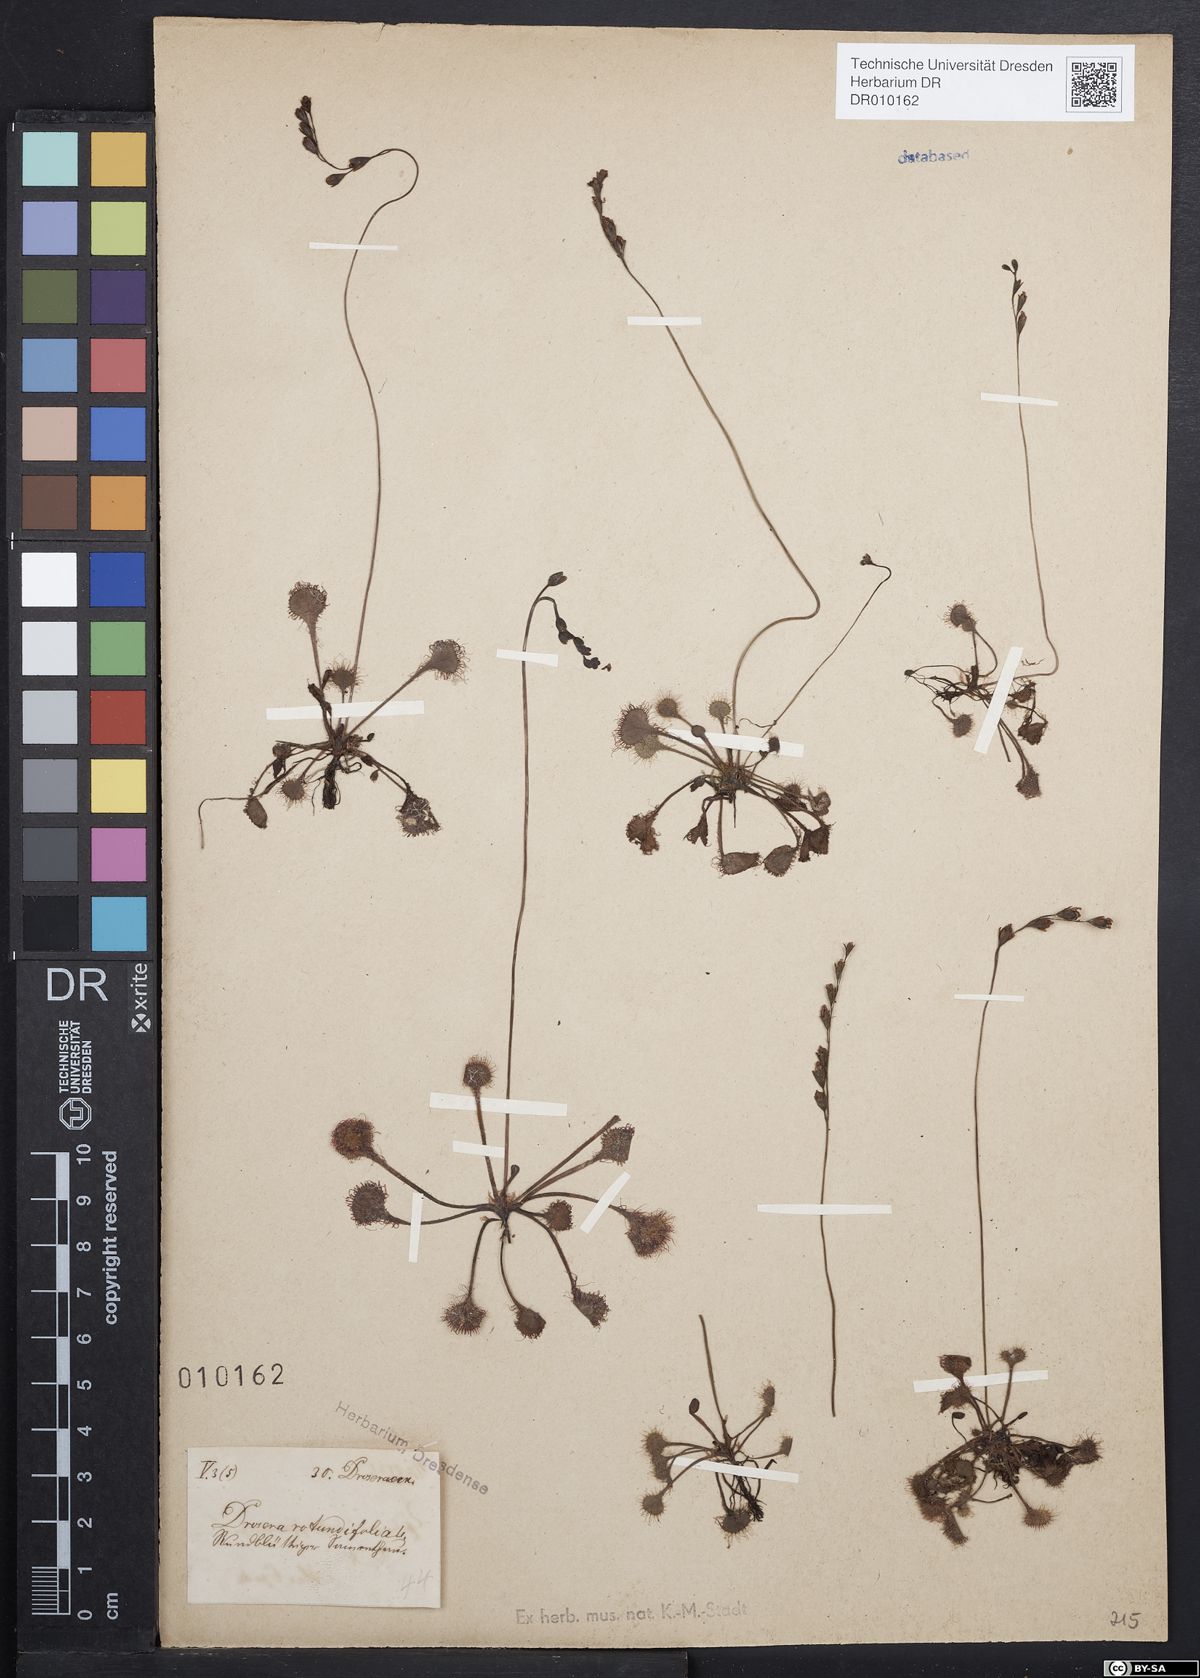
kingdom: Plantae
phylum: Tracheophyta
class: Magnoliopsida
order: Caryophyllales
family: Droseraceae
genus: Drosera
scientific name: Drosera rotundifolia
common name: Round-leaved sundew
